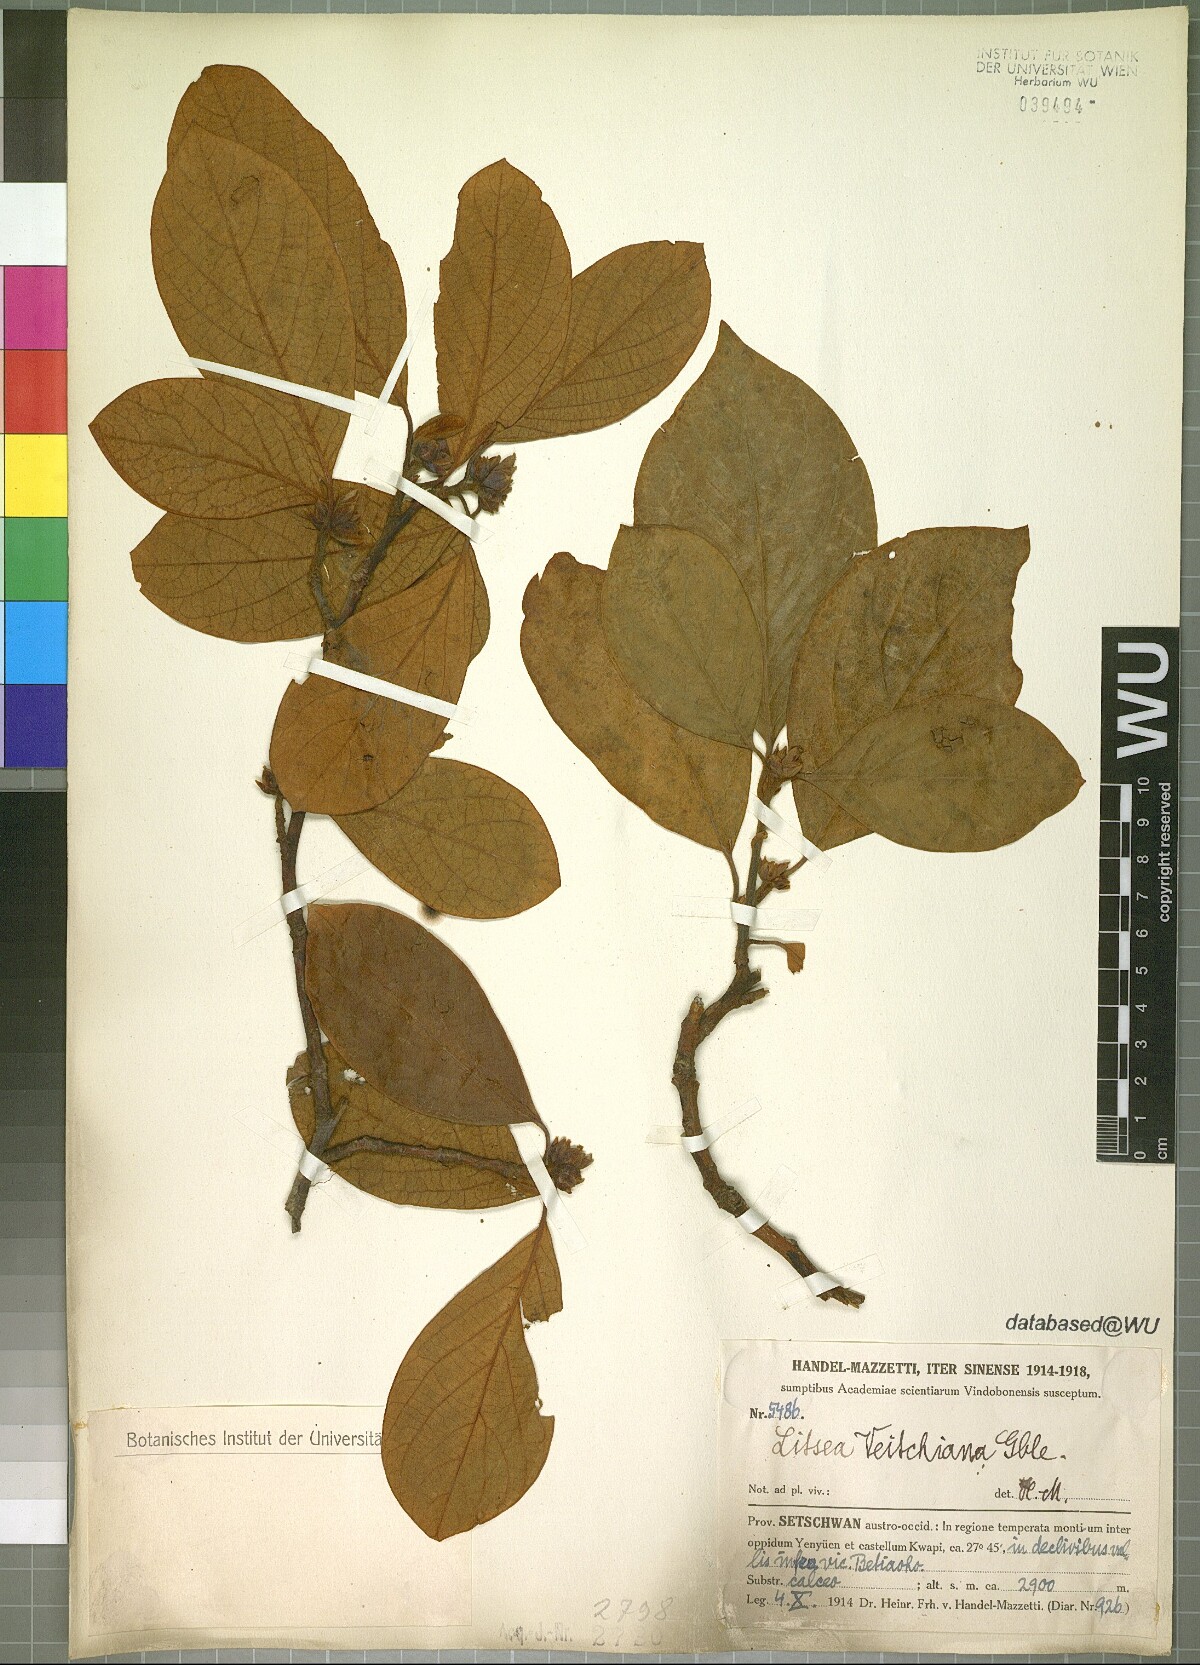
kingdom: Plantae
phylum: Tracheophyta
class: Magnoliopsida
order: Laurales
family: Lauraceae
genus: Litsea
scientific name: Litsea veitchiana
